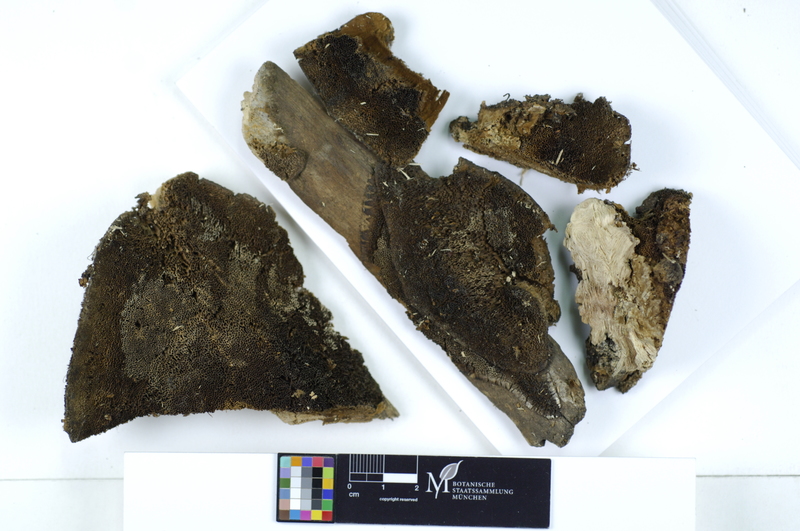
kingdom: Plantae
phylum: Tracheophyta
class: Magnoliopsida
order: Malpighiales
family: Salicaceae
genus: Populus
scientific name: Populus nigra
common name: Black poplar
